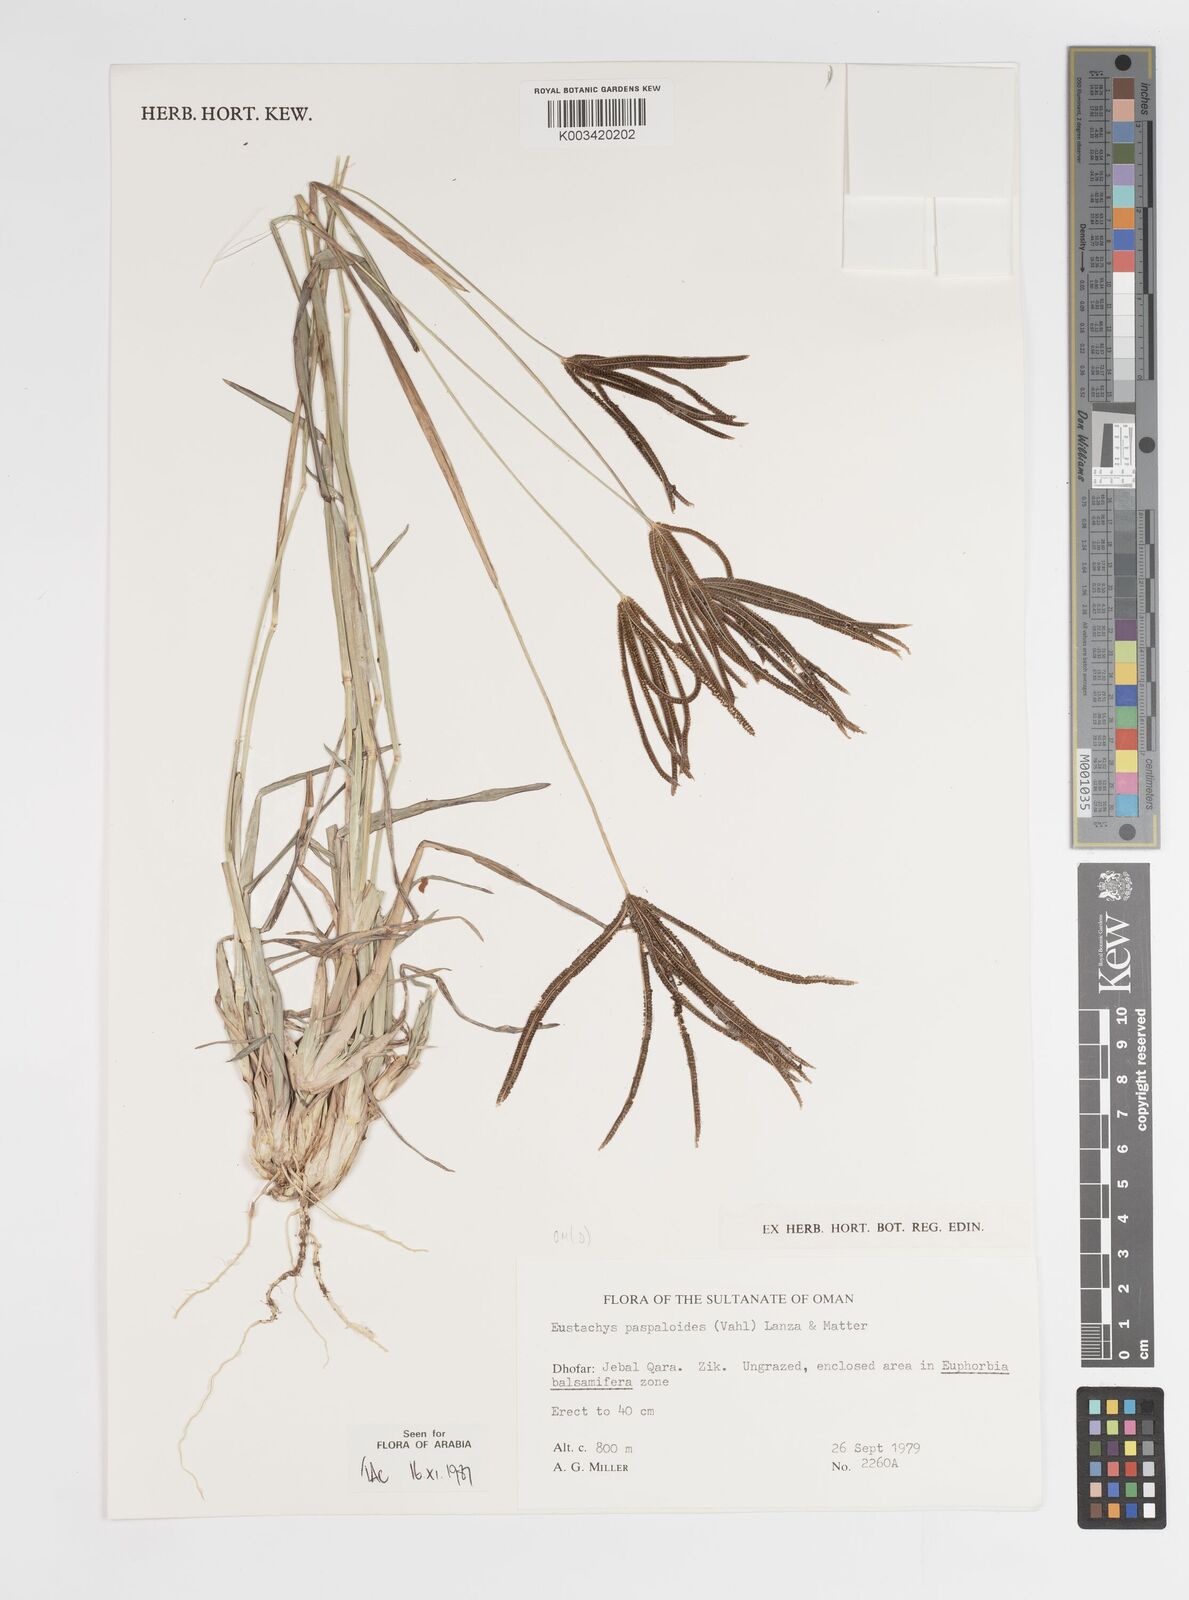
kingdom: Plantae
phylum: Tracheophyta
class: Liliopsida
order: Poales
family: Poaceae
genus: Eustachys
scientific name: Eustachys paspaloides
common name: Caribbean fingergrass
